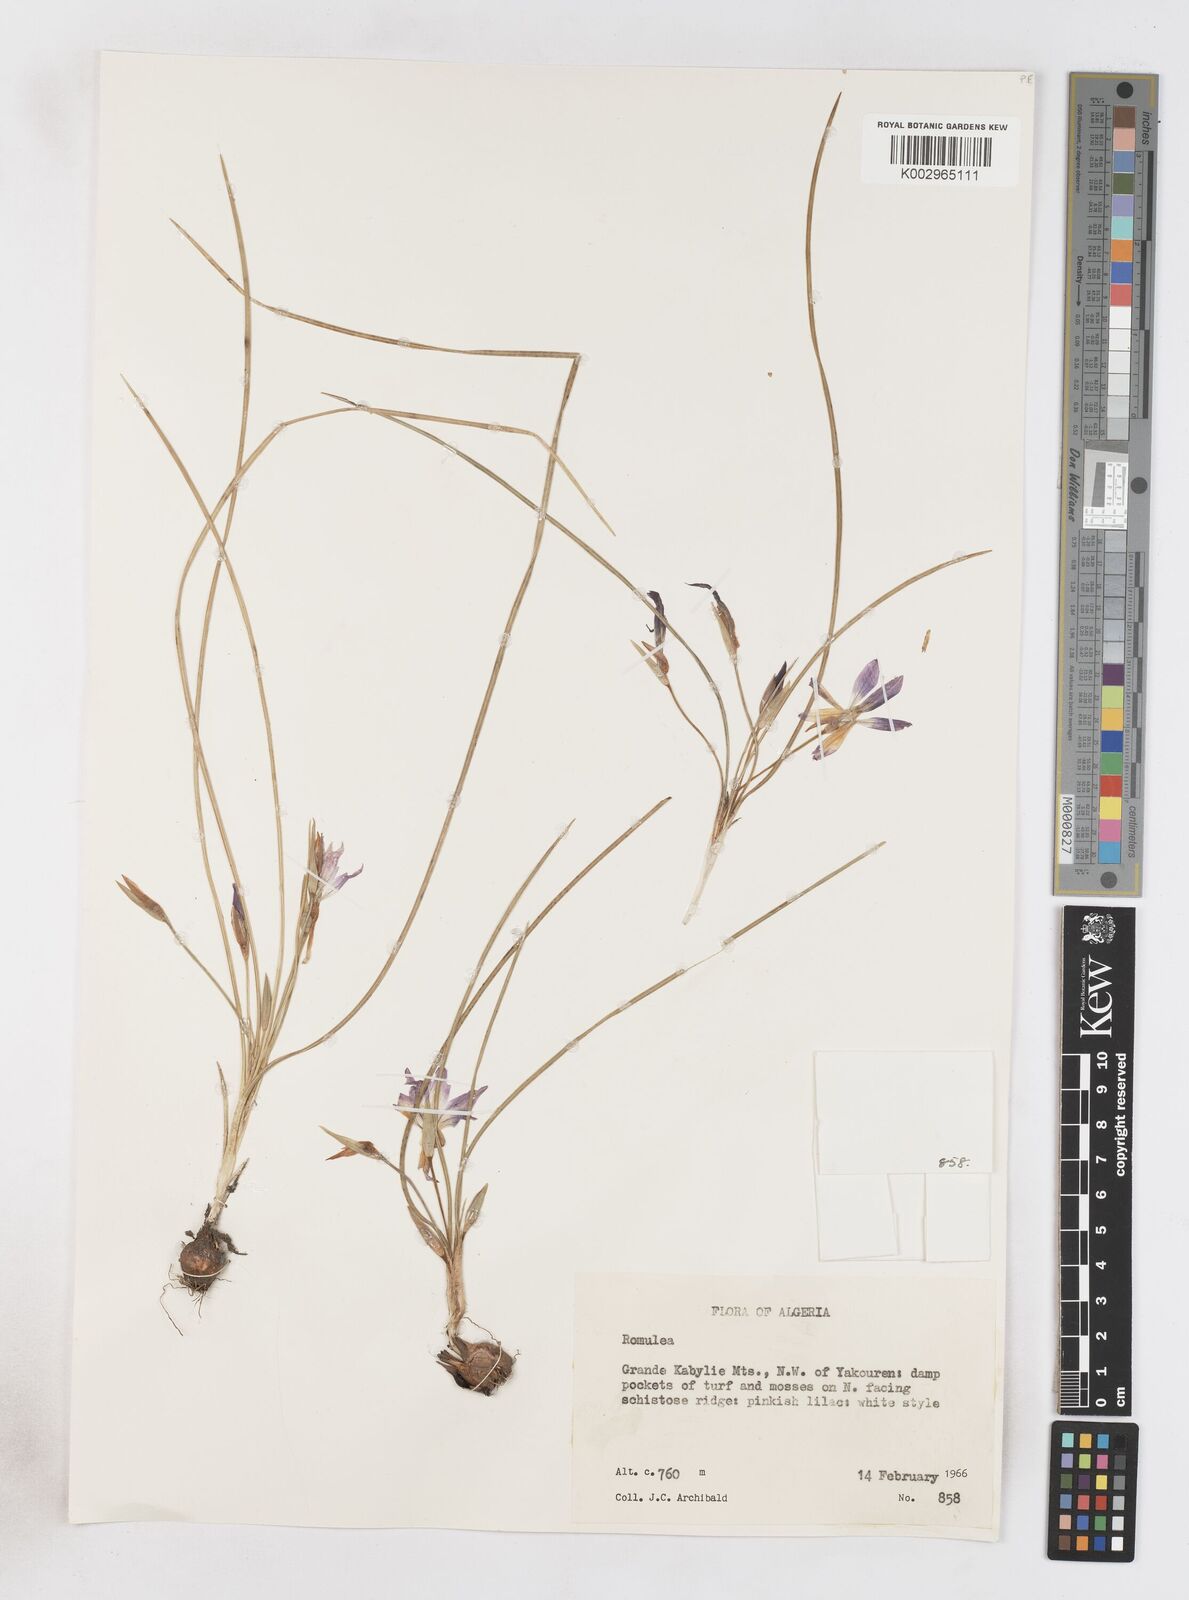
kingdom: Plantae
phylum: Tracheophyta
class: Liliopsida
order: Asparagales
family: Iridaceae
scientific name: Iridaceae
